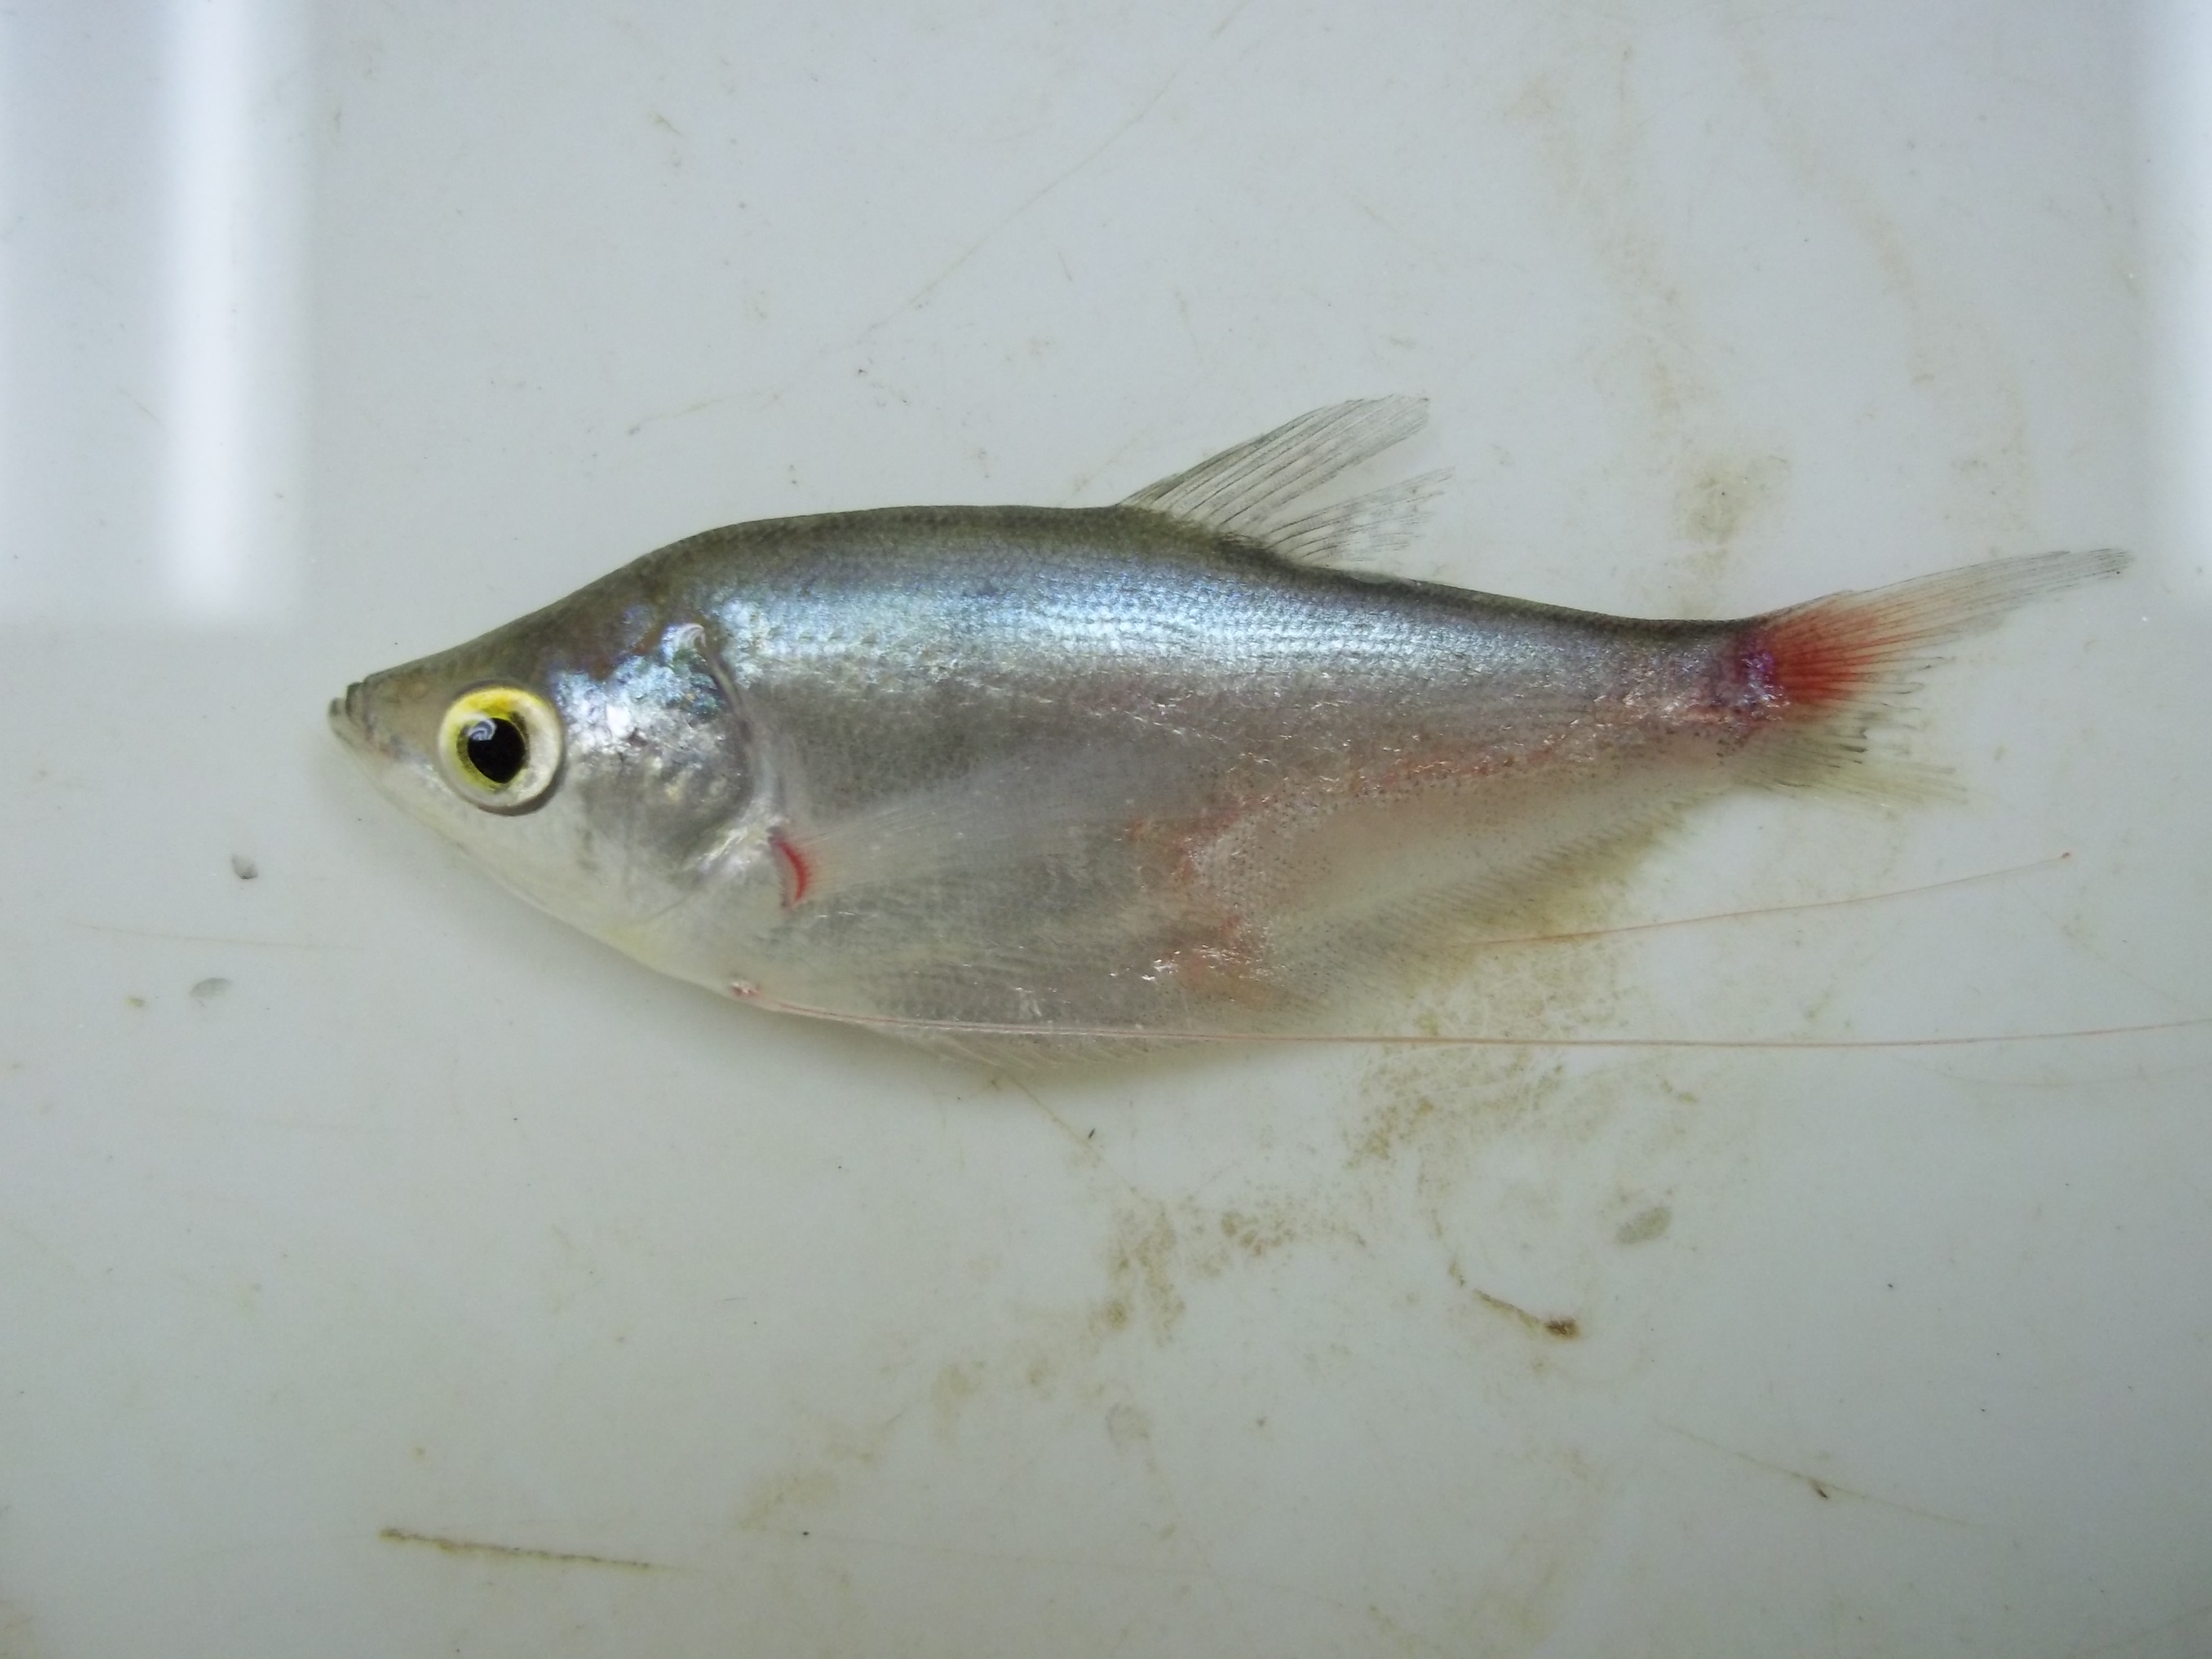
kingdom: Animalia
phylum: Chordata
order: Perciformes
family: Osphronemidae
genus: Trichopodus
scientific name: Trichopodus microlepis
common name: Moonbeam gourami
